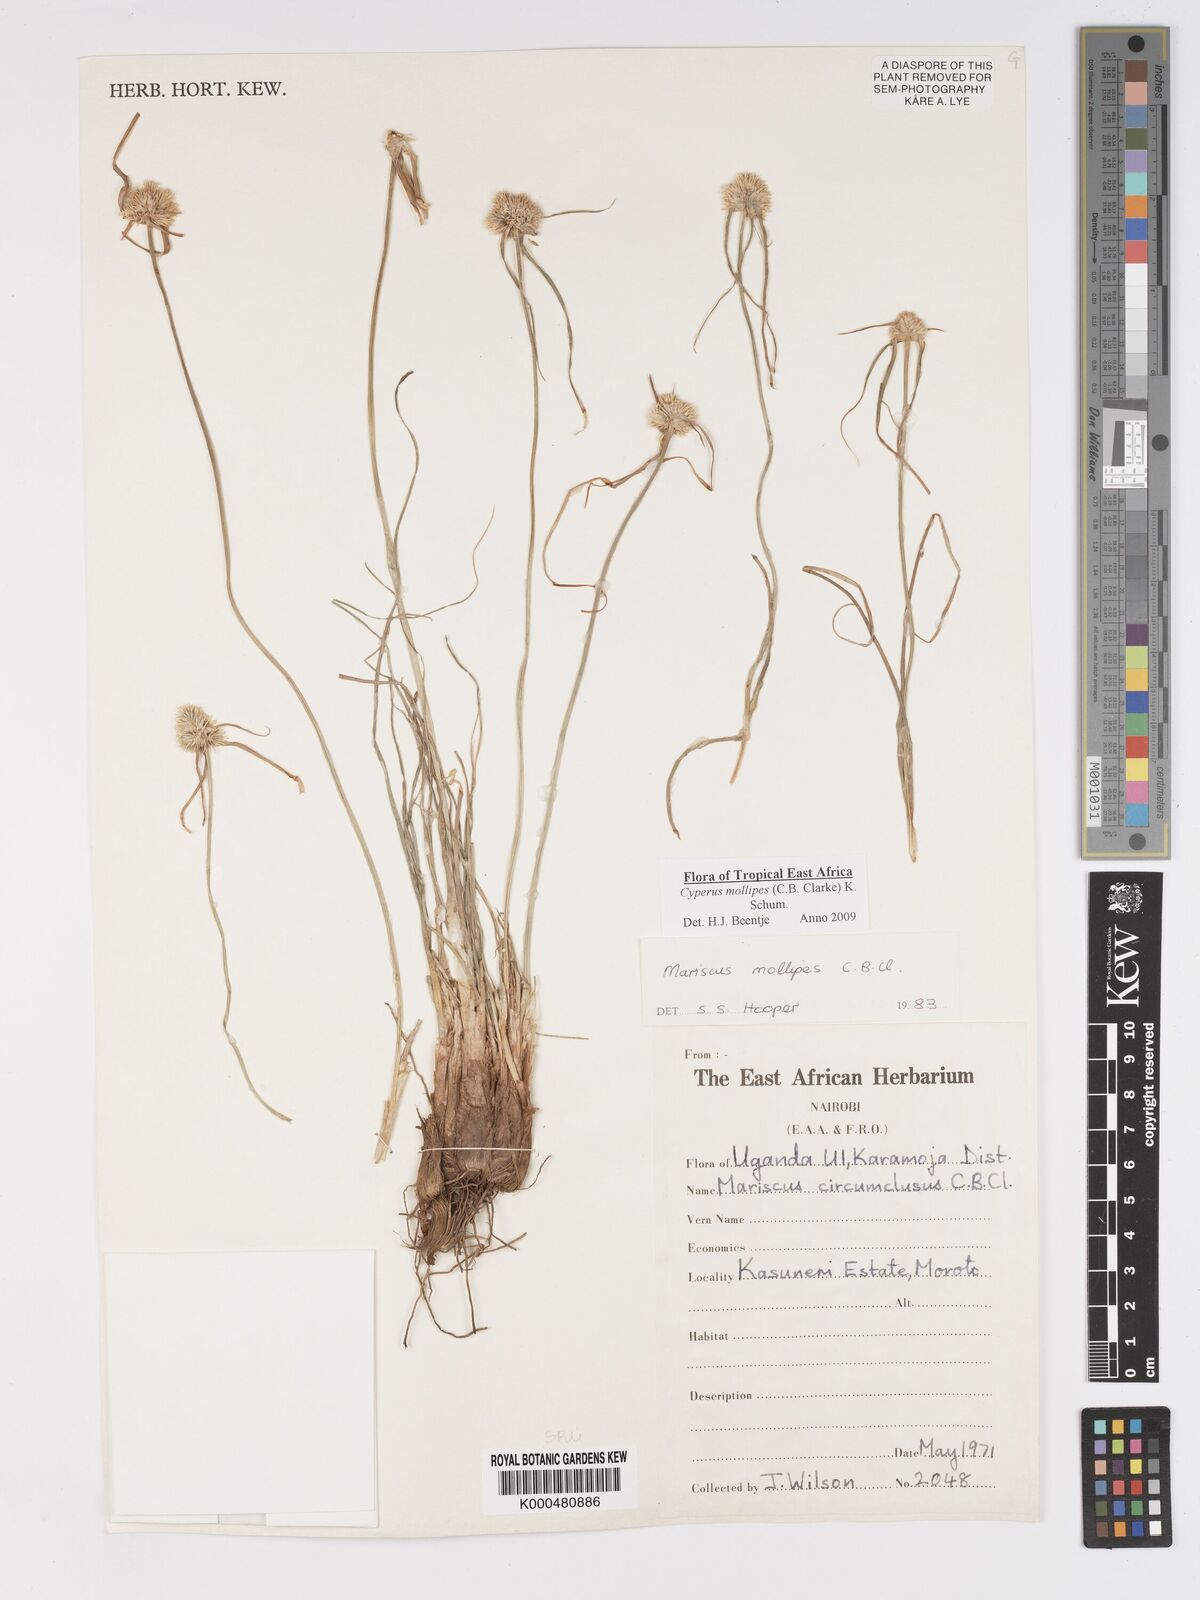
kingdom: Plantae
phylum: Tracheophyta
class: Liliopsida
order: Poales
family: Cyperaceae
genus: Cyperus
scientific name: Cyperus mollipes
